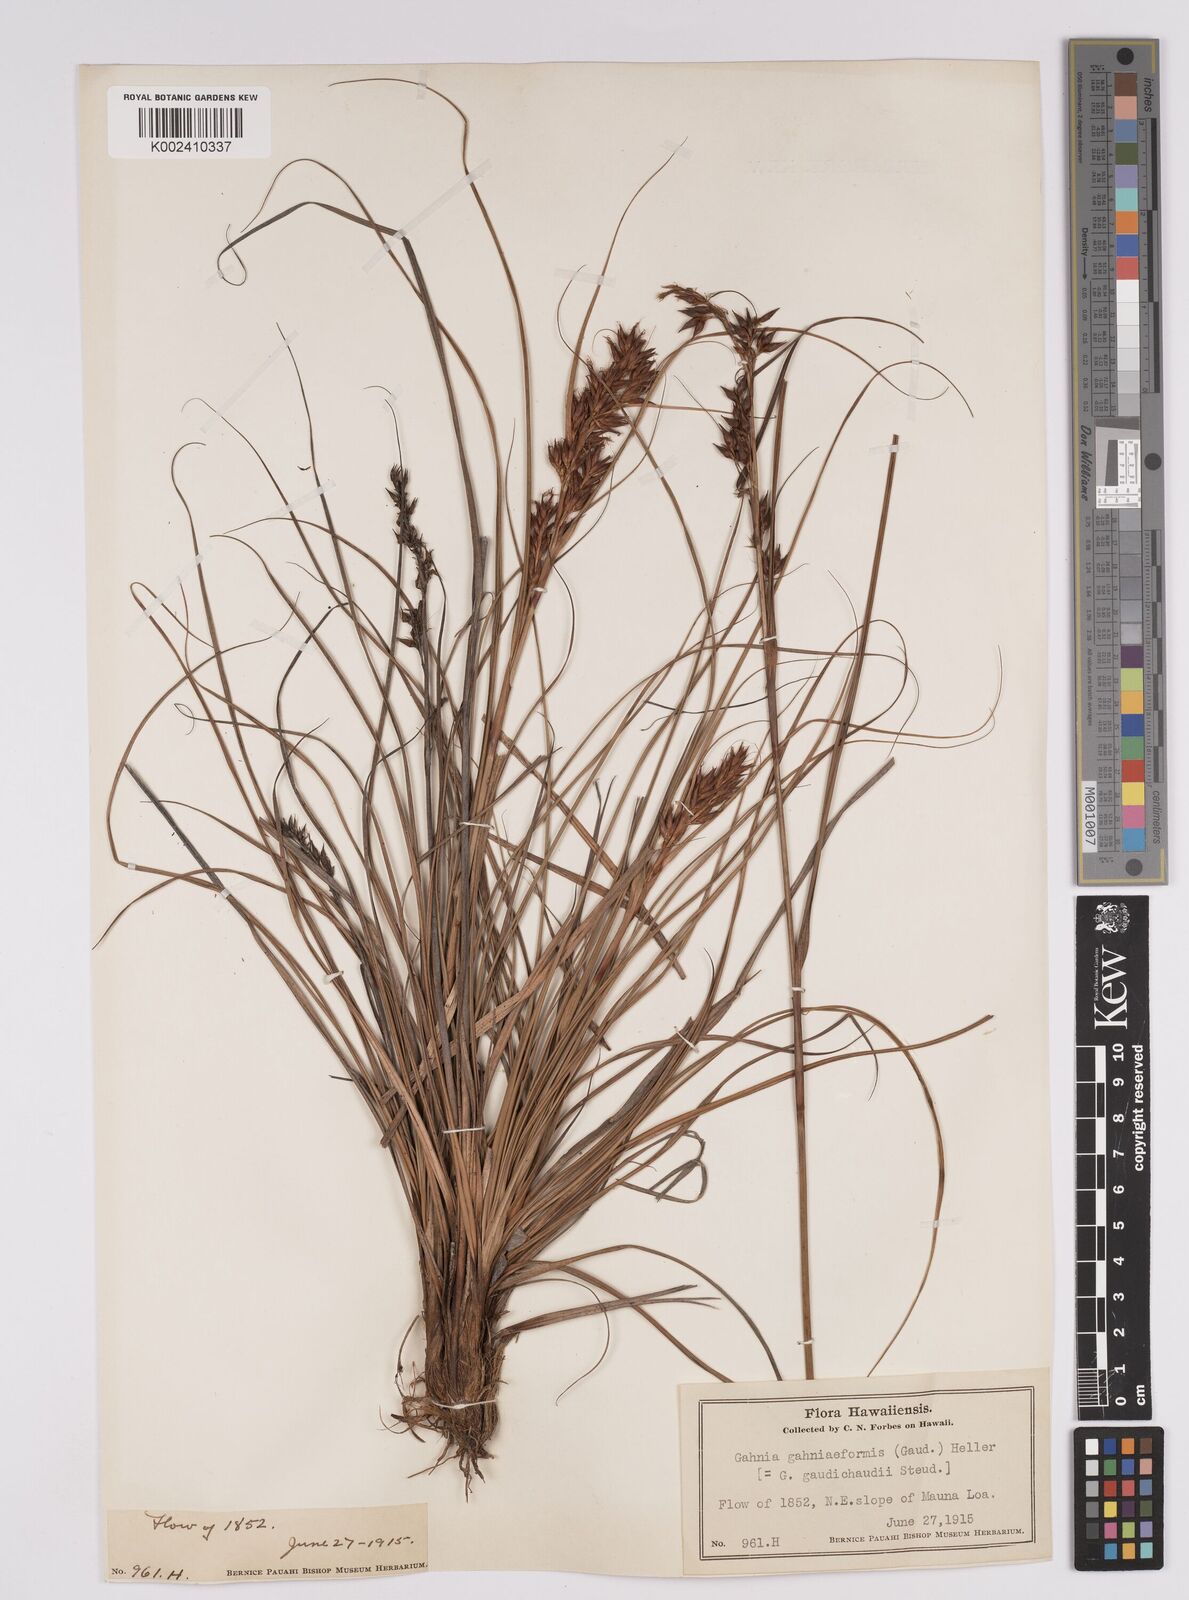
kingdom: Plantae
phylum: Tracheophyta
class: Liliopsida
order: Poales
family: Cyperaceae
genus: Morelotia
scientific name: Morelotia gahniiformis
